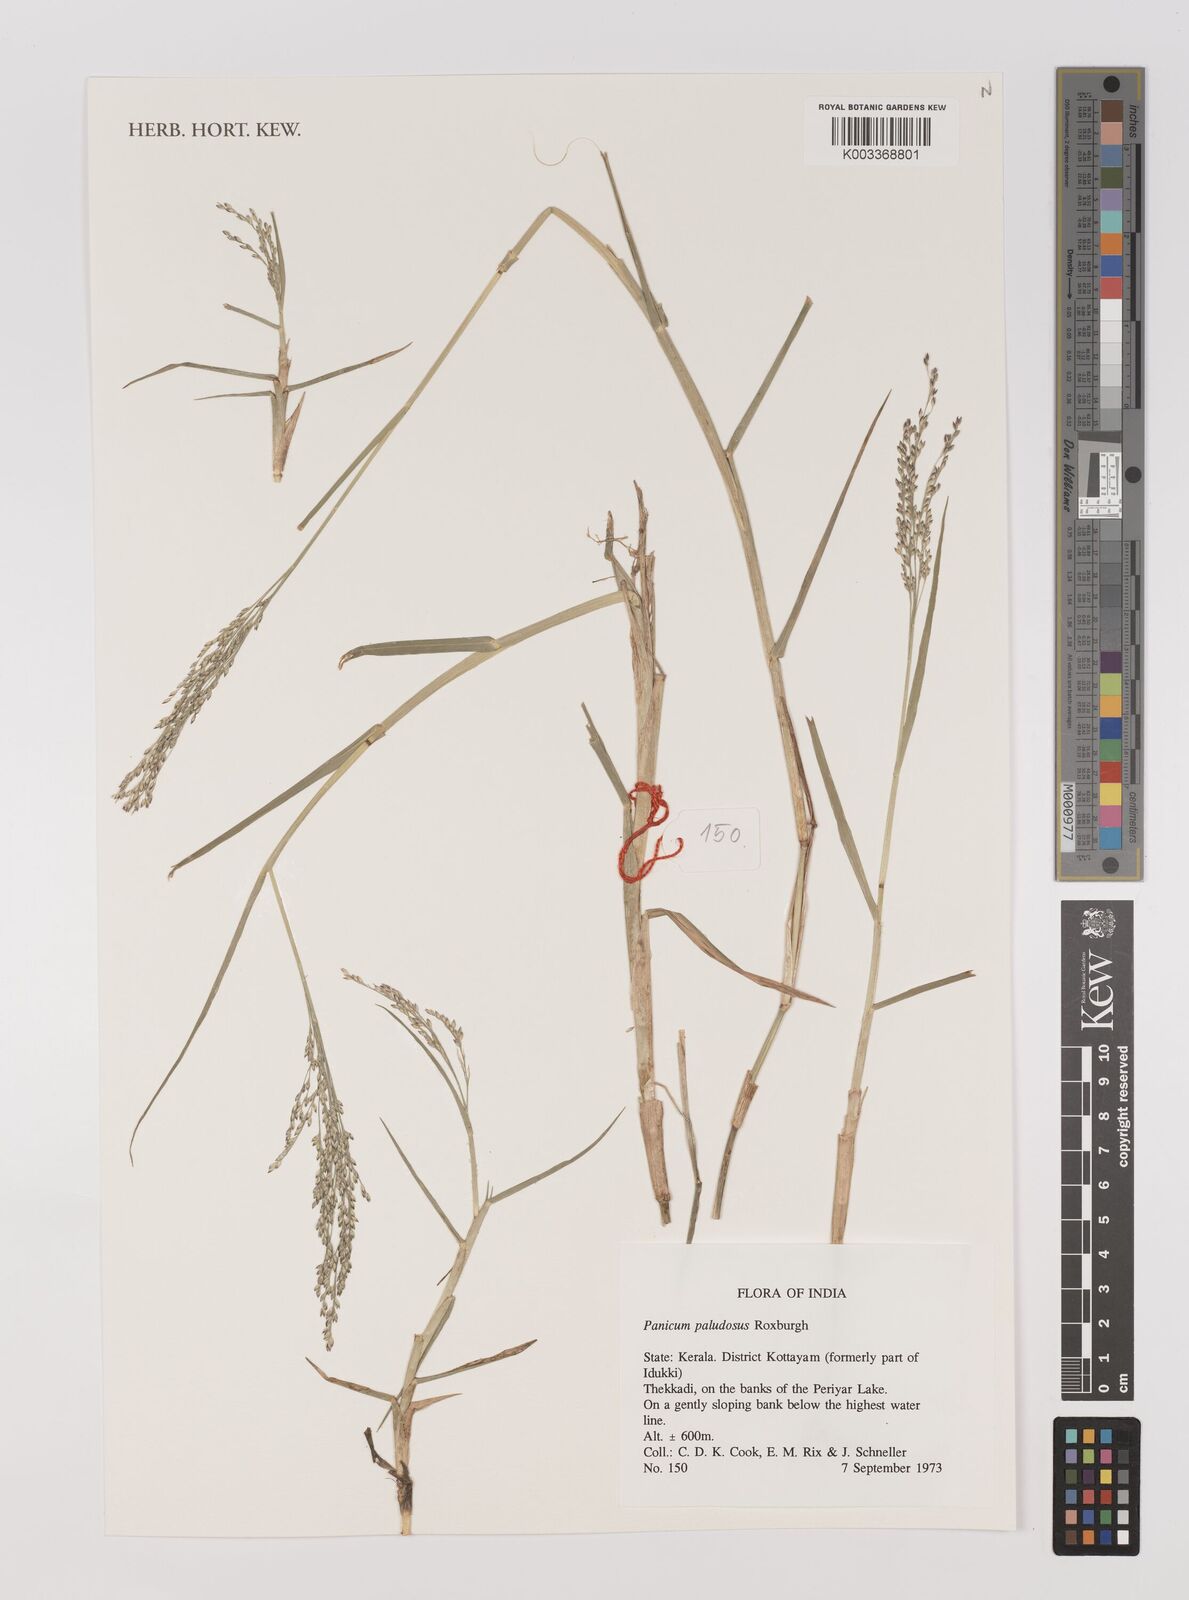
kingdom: Plantae
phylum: Tracheophyta
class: Liliopsida
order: Poales
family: Poaceae
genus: Louisiella
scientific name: Louisiella paludosa
